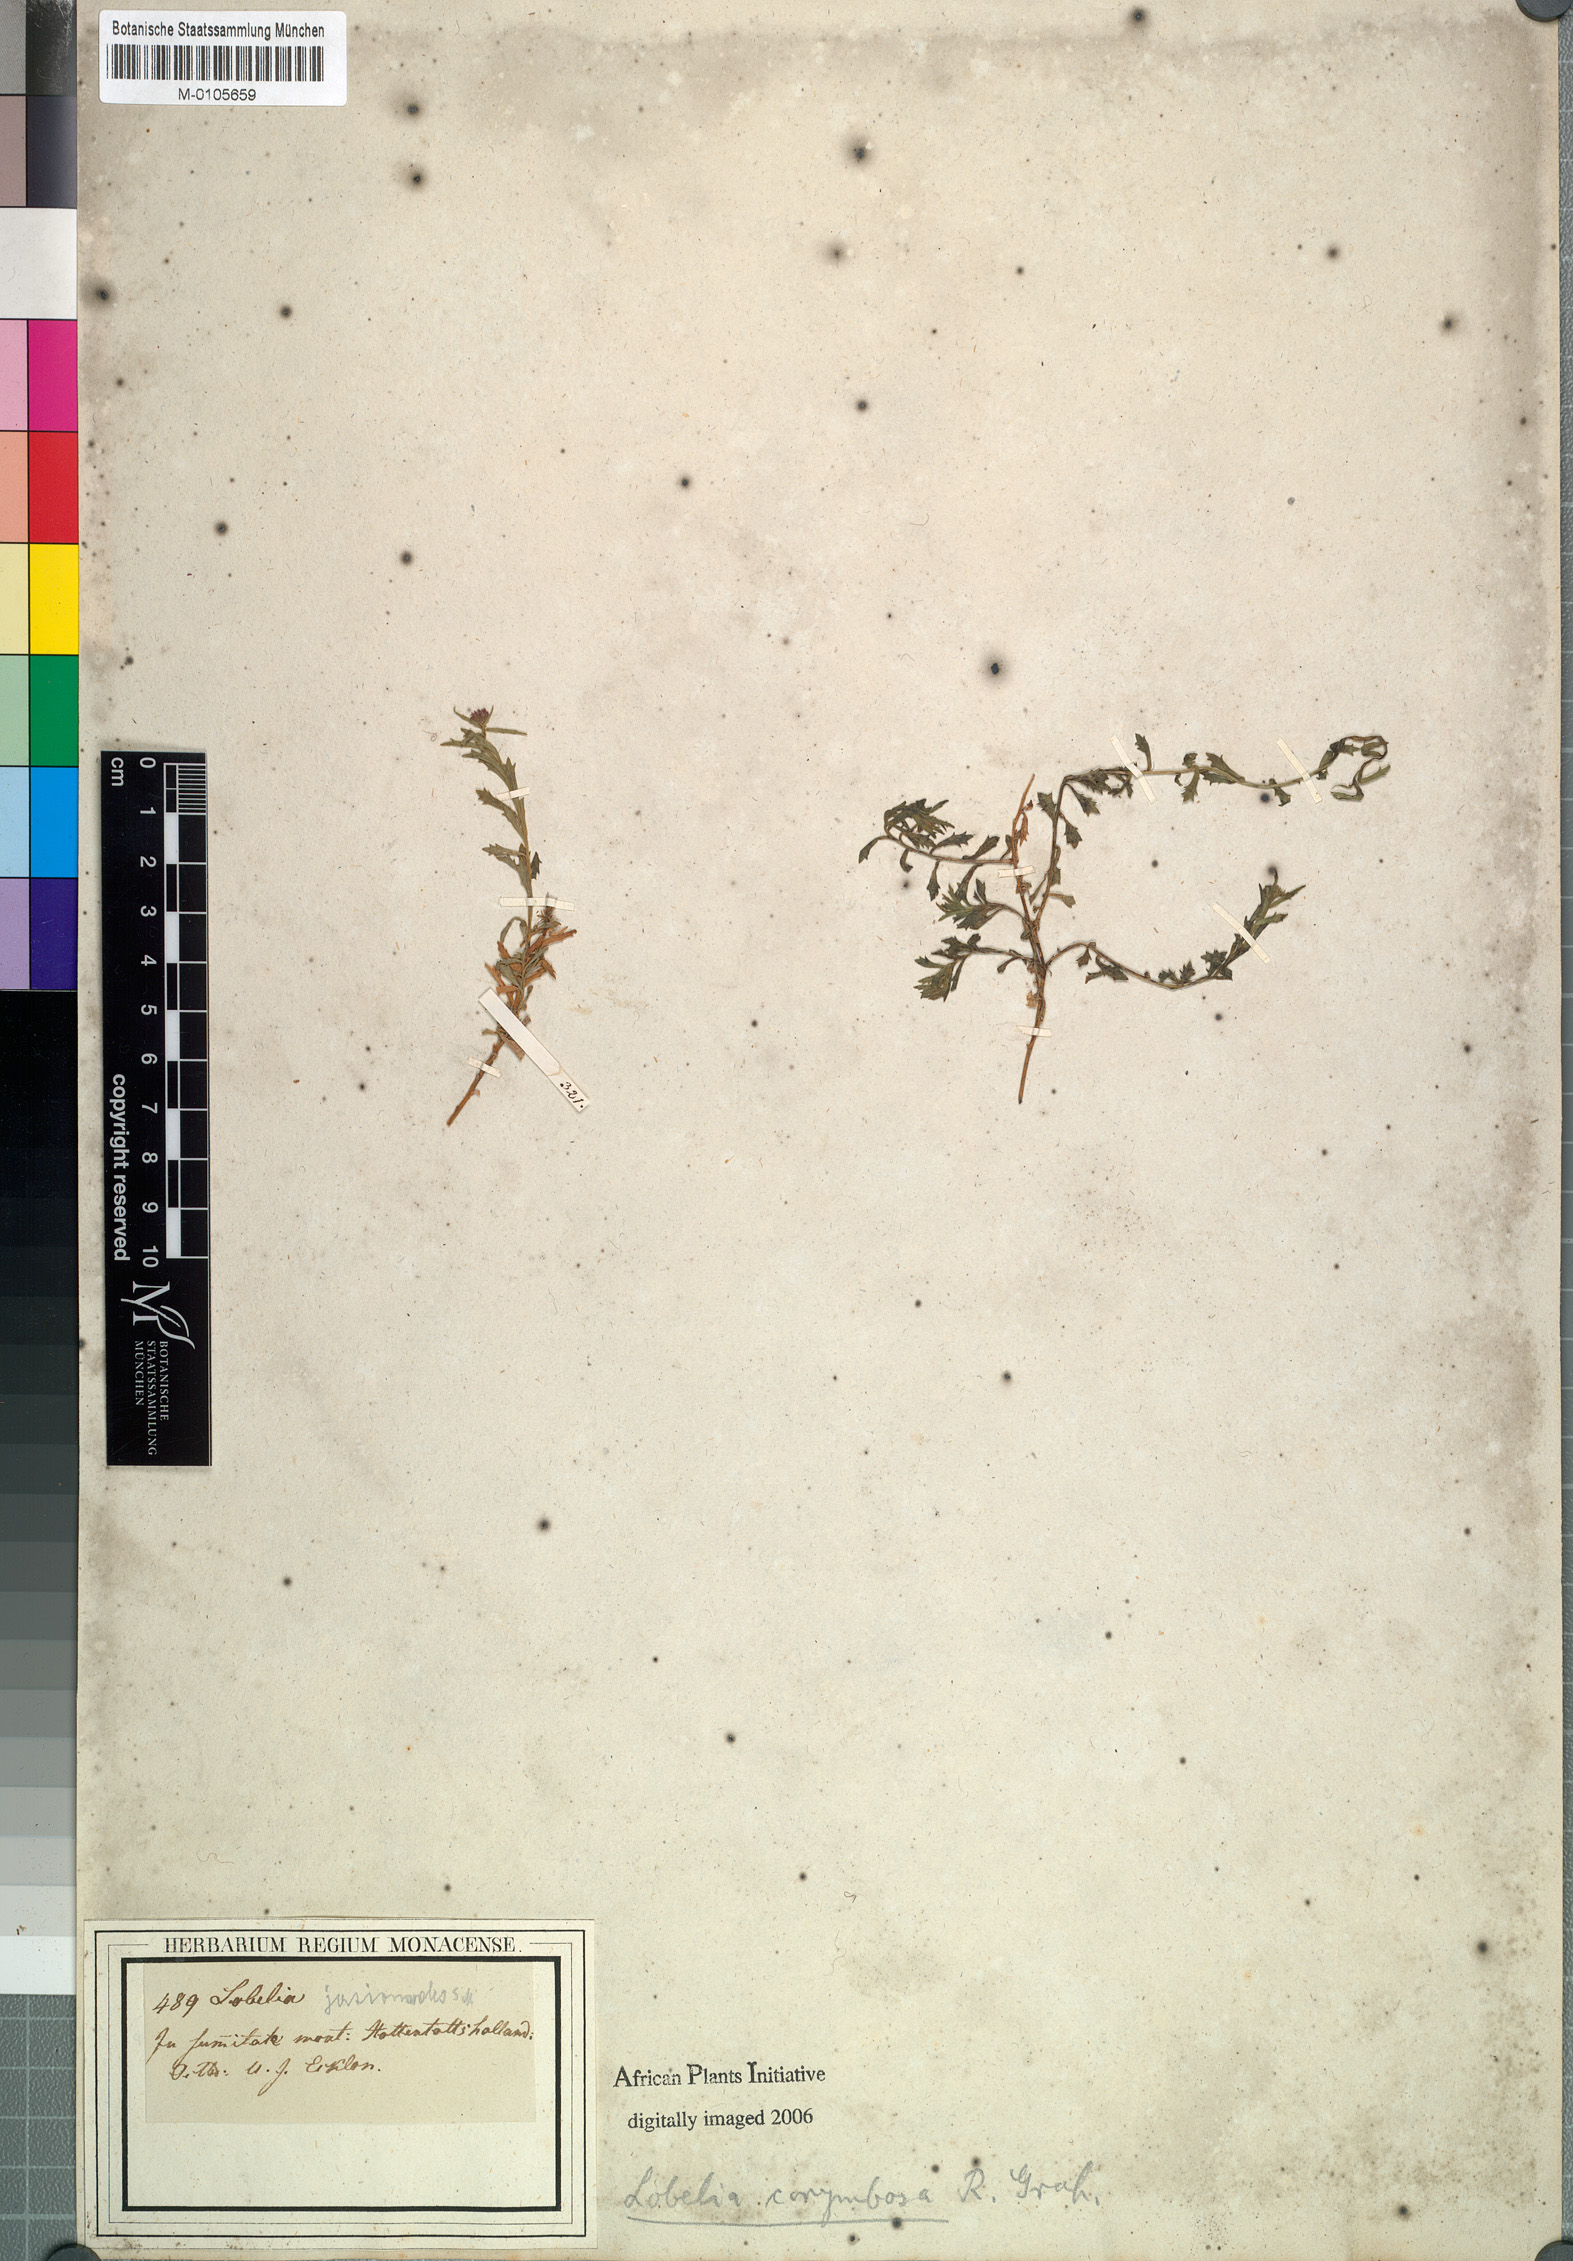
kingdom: Plantae
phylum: Tracheophyta
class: Magnoliopsida
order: Asterales
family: Campanulaceae
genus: Lobelia
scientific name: Lobelia jasionoides
